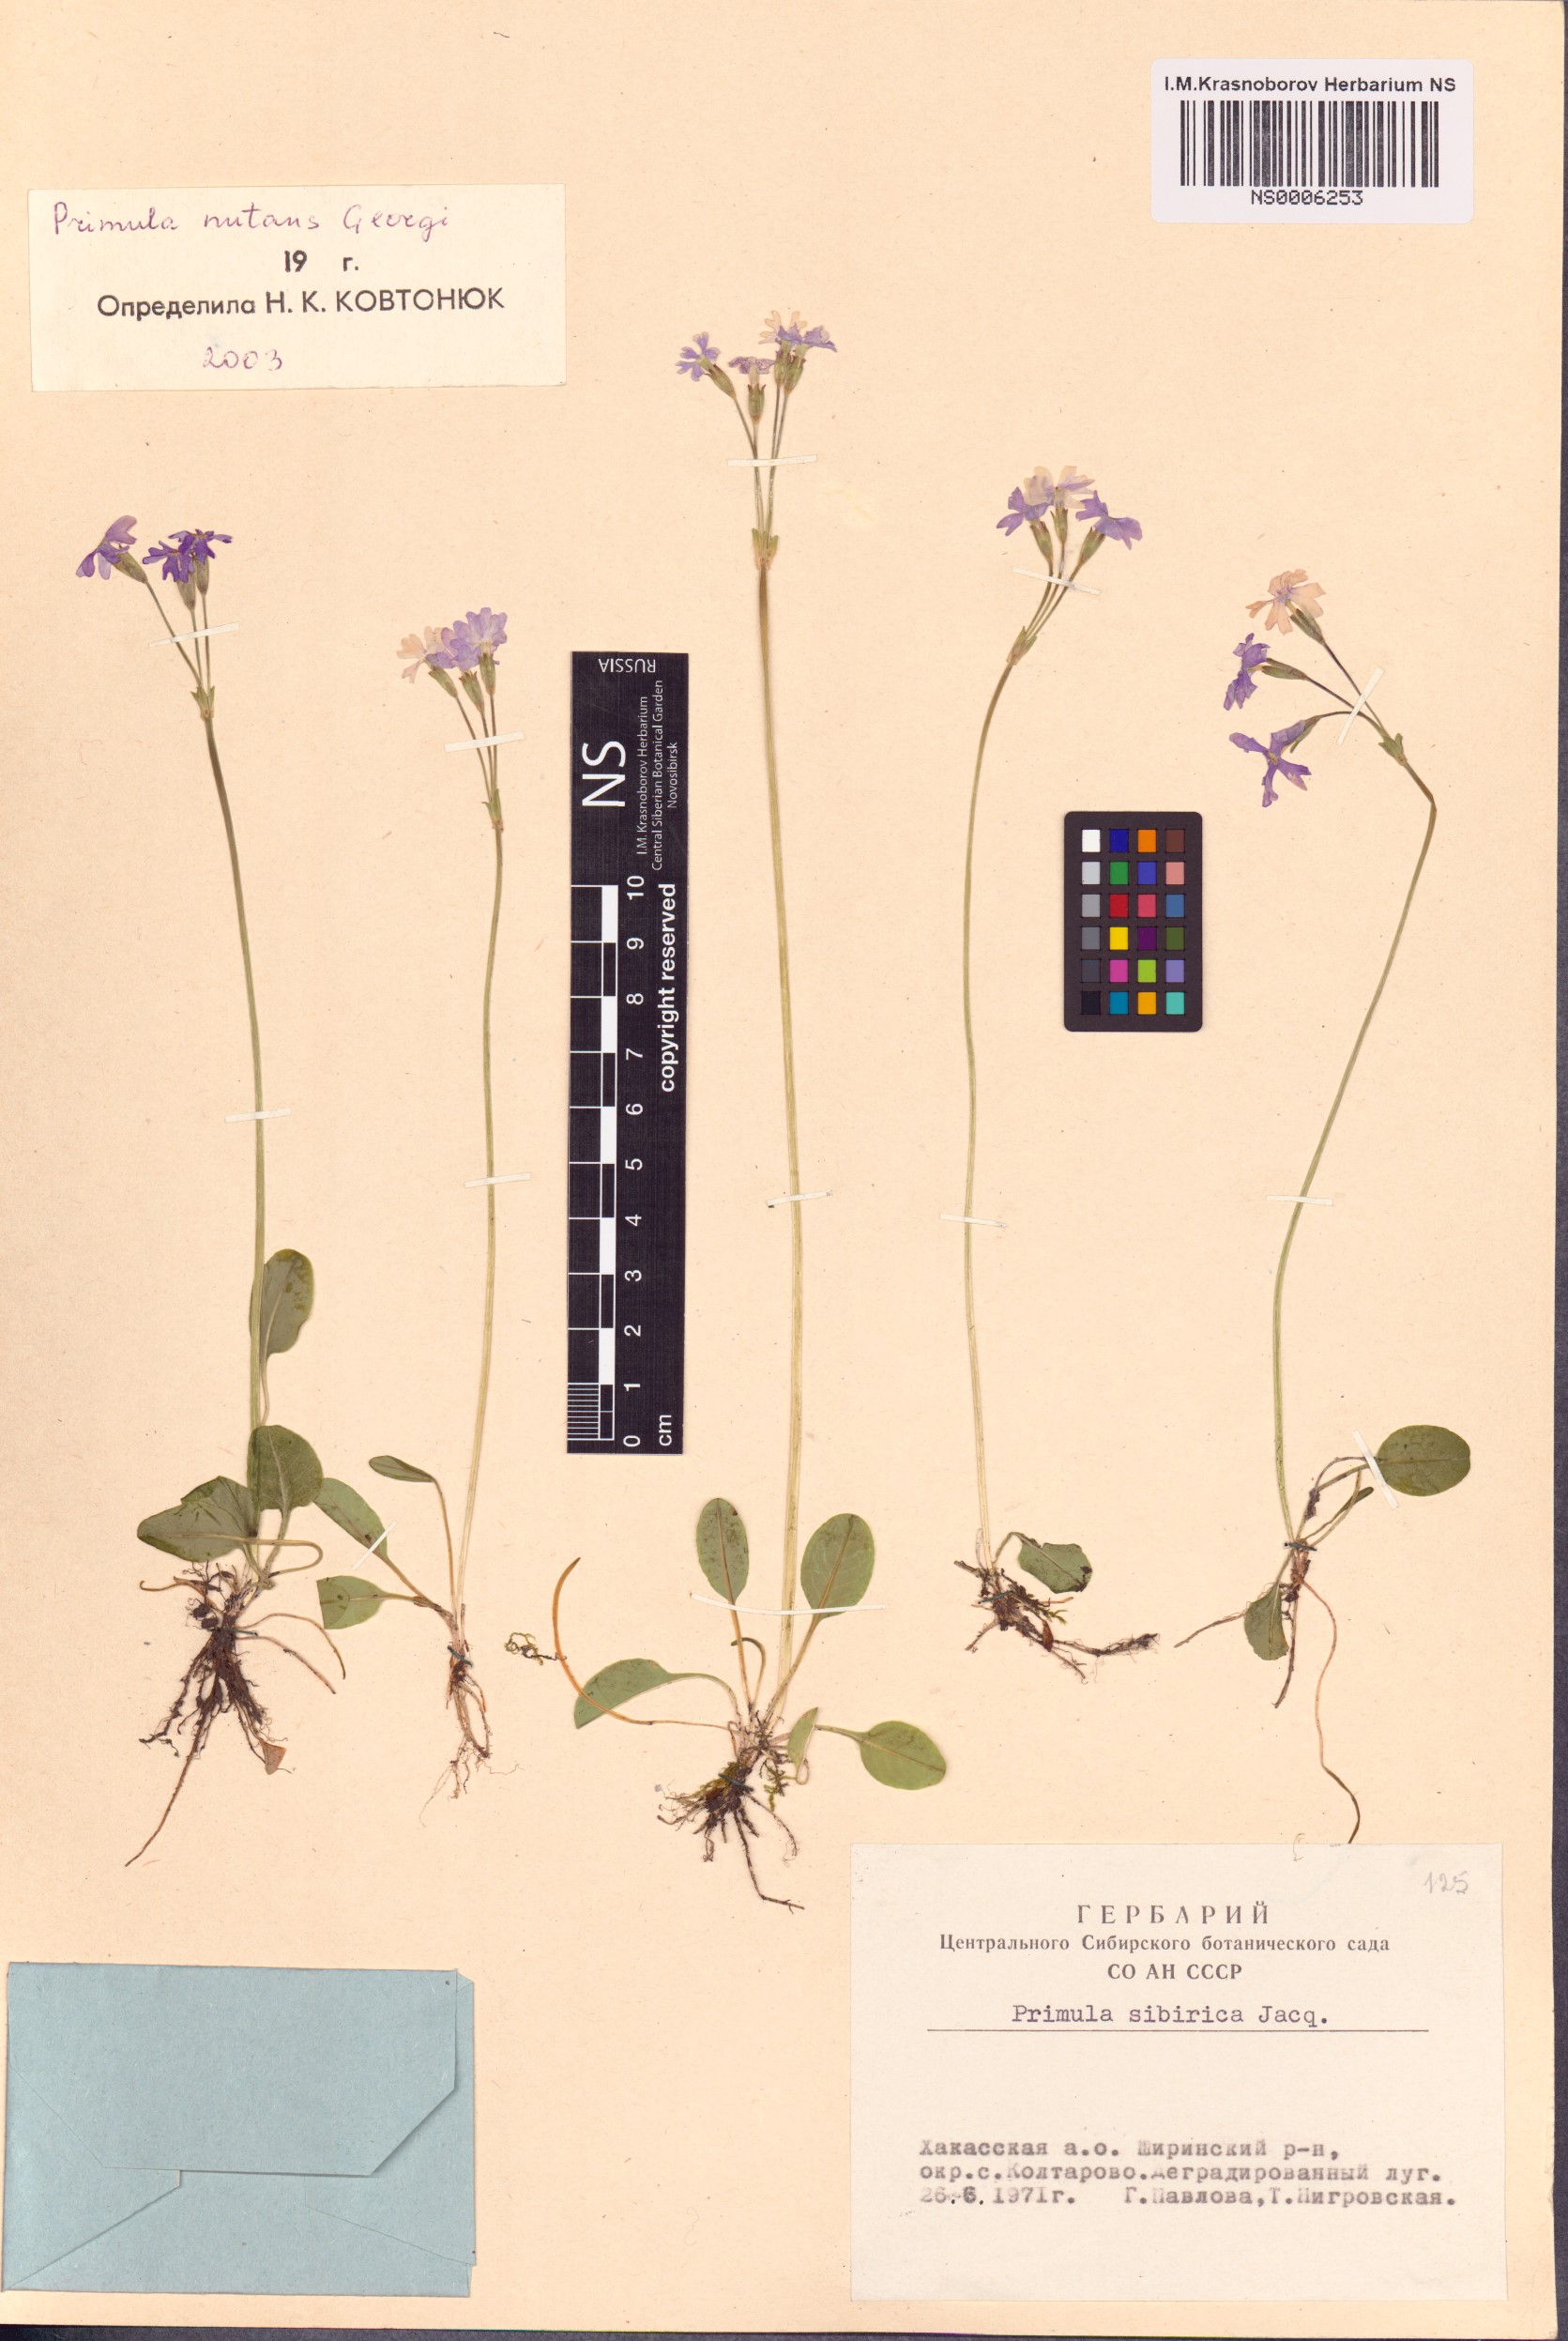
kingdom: Plantae
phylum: Tracheophyta
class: Magnoliopsida
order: Ericales
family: Primulaceae
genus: Primula
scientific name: Primula nutans
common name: Siberian primrose
